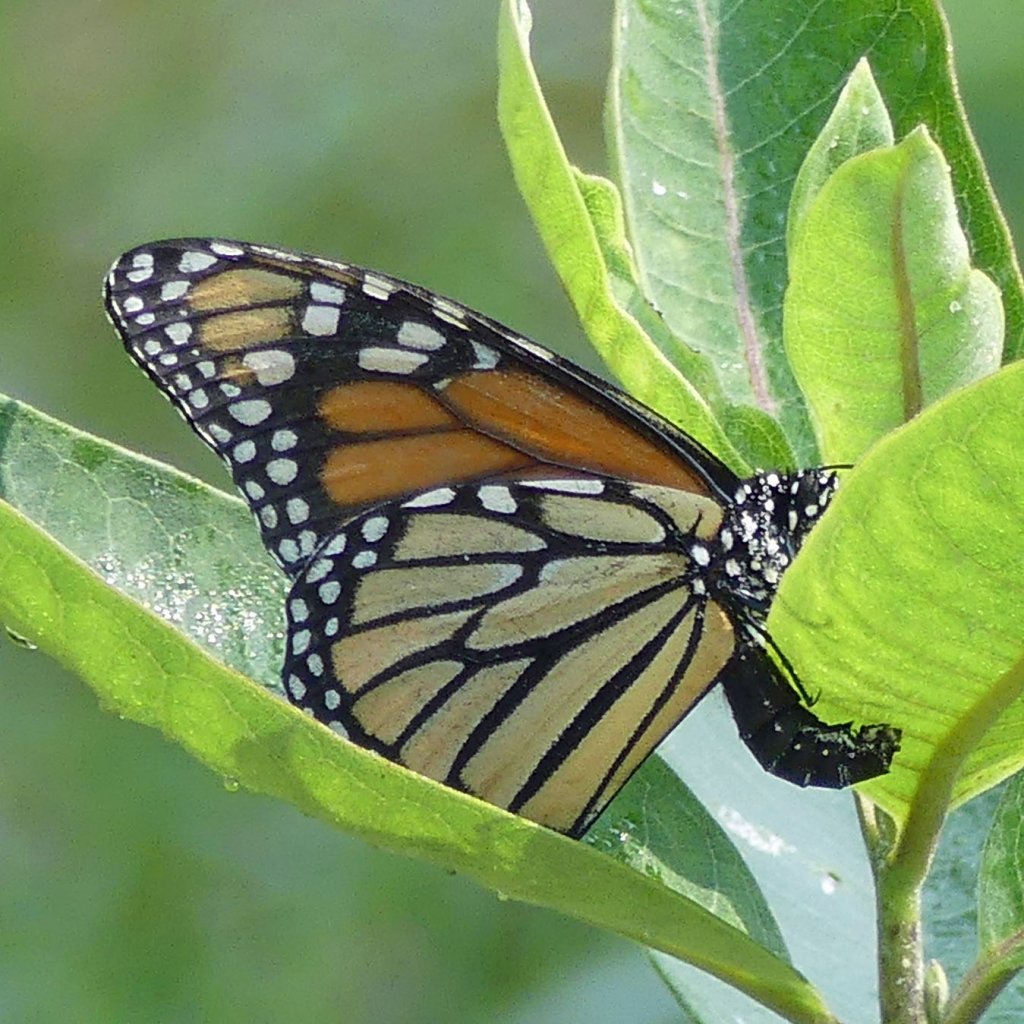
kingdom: Animalia
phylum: Arthropoda
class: Insecta
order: Lepidoptera
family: Nymphalidae
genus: Danaus
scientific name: Danaus plexippus
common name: Monarch
